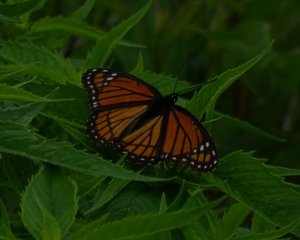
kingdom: Animalia
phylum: Arthropoda
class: Insecta
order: Lepidoptera
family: Nymphalidae
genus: Limenitis
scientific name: Limenitis archippus
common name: Viceroy
